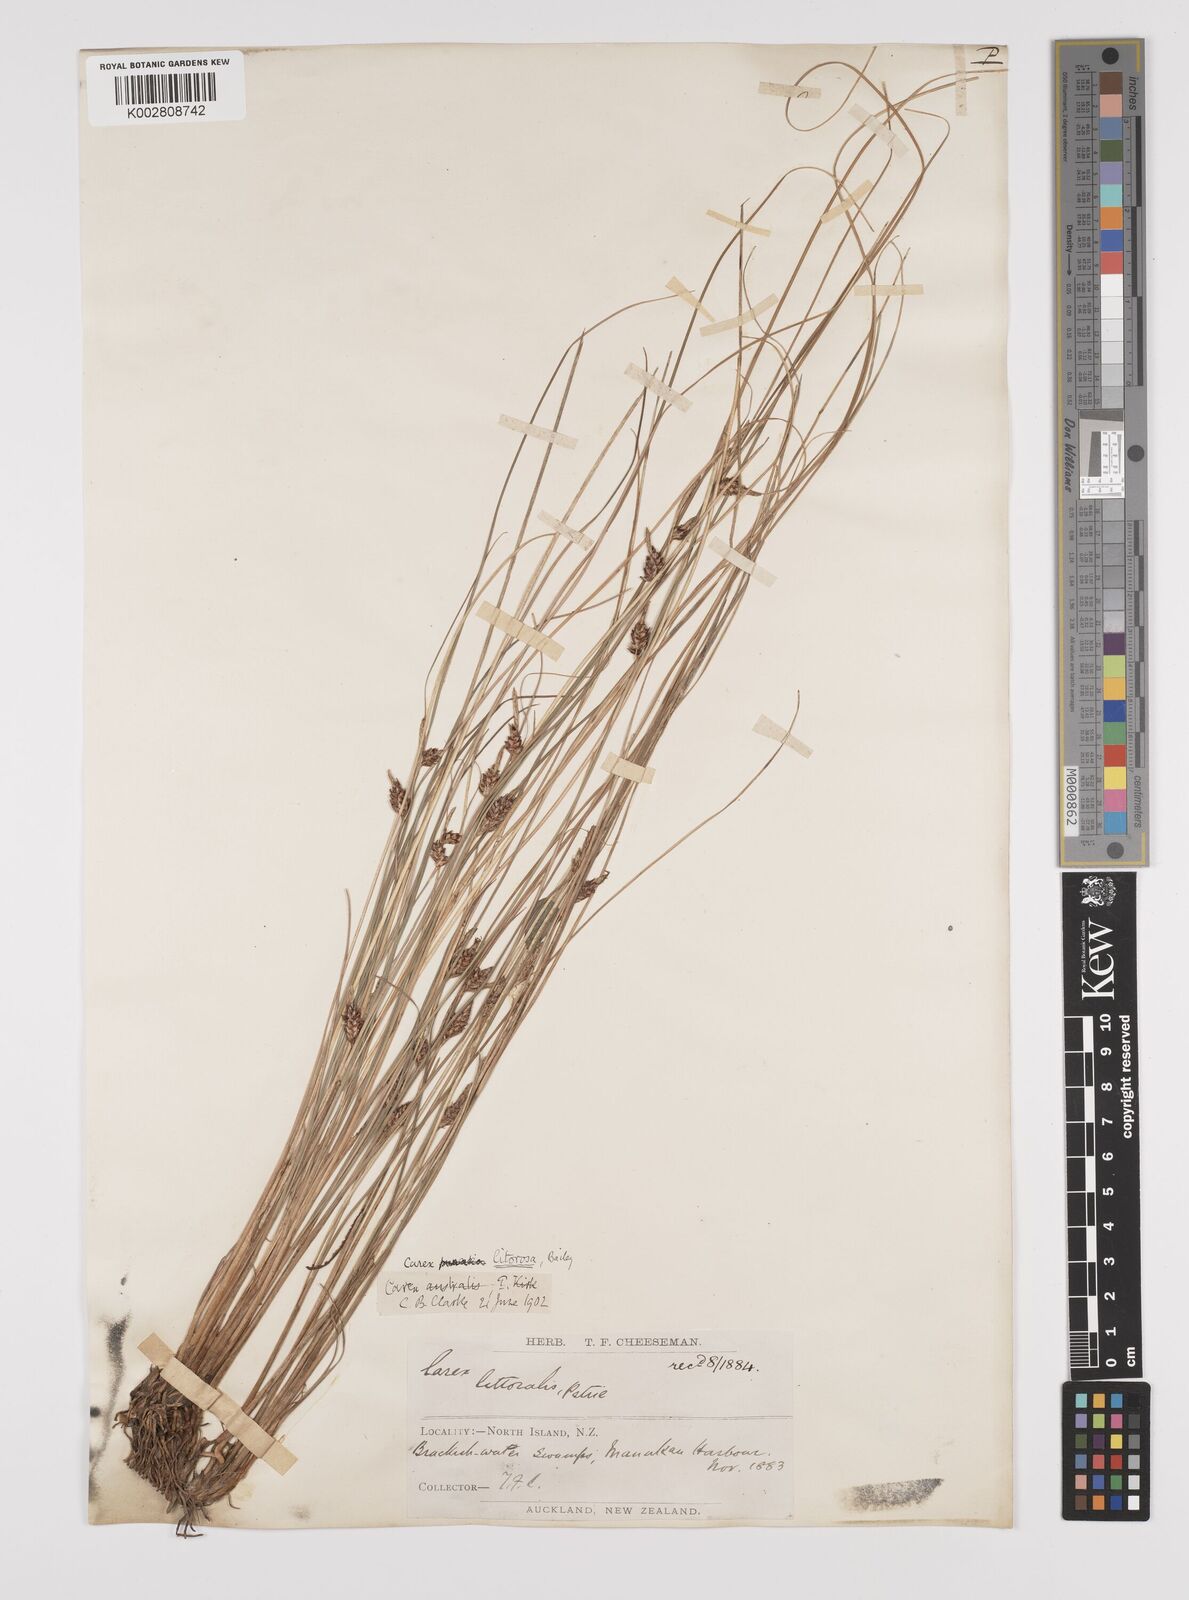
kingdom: Plantae
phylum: Tracheophyta
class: Liliopsida
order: Poales
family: Cyperaceae
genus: Carex
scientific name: Carex litorosa
